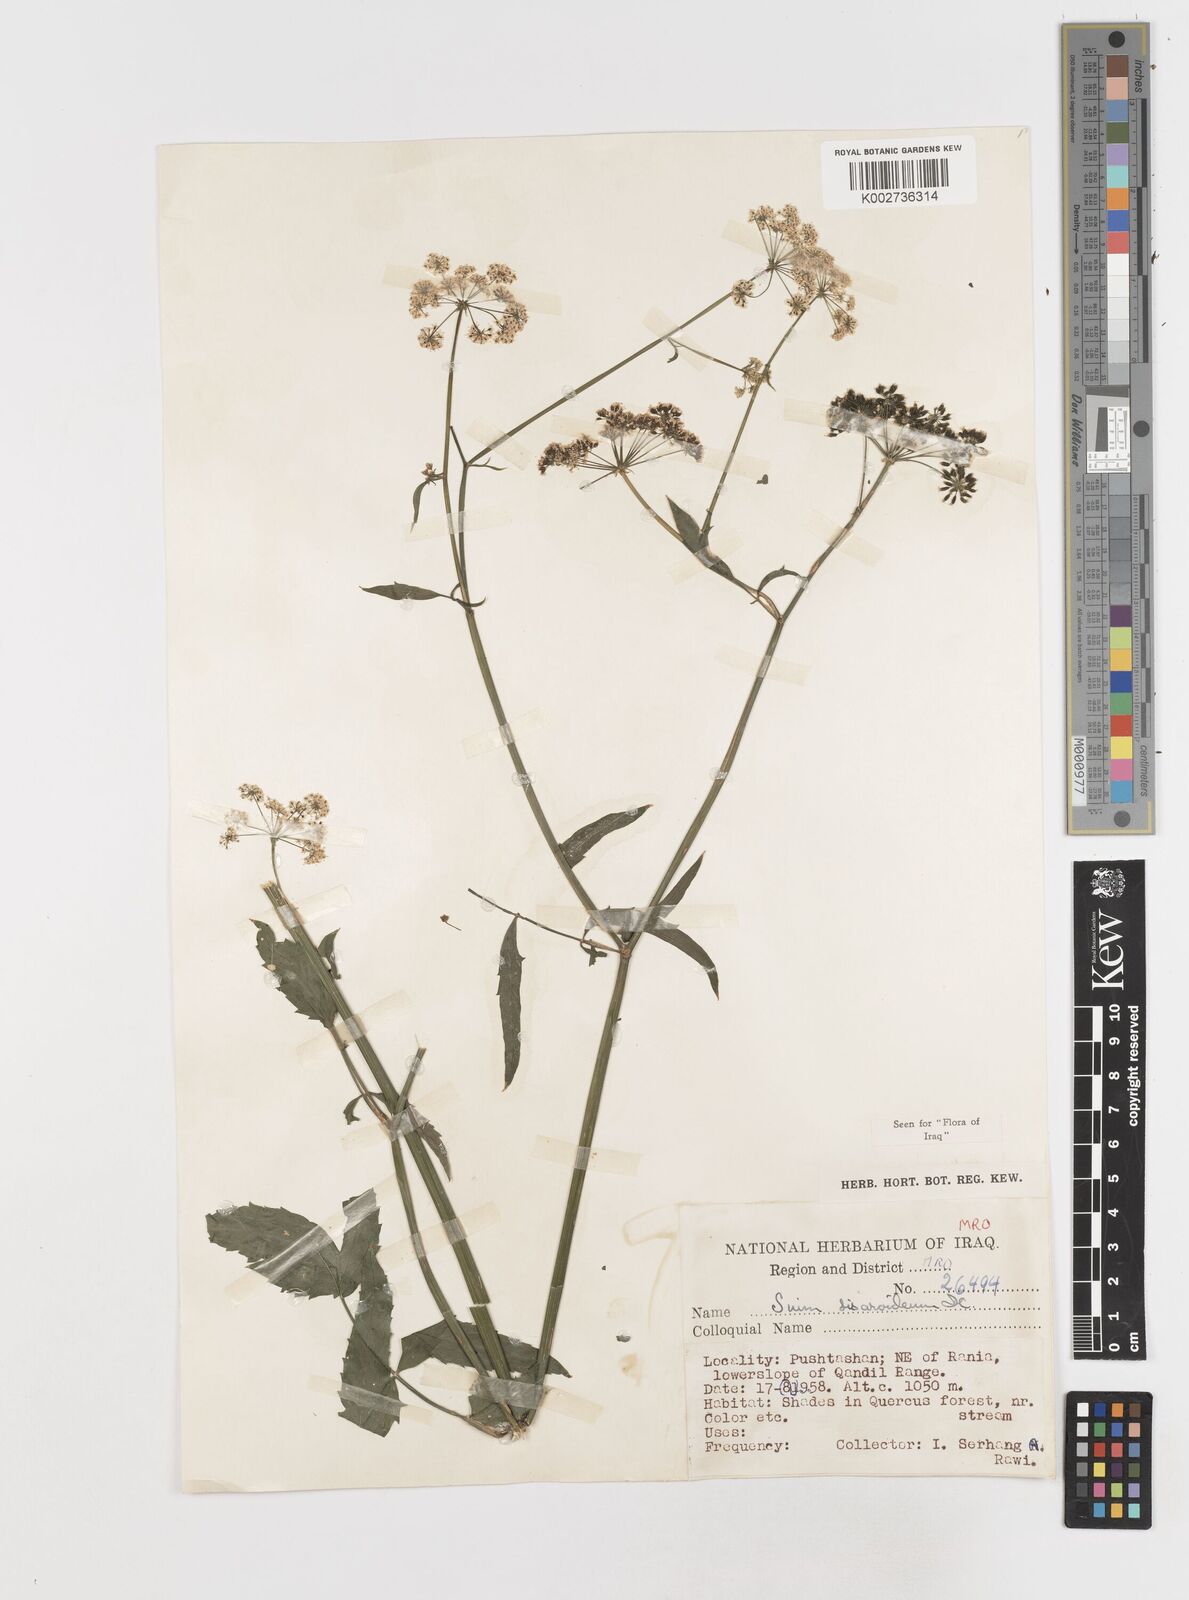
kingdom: Plantae
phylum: Tracheophyta
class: Magnoliopsida
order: Apiales
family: Apiaceae
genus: Sium
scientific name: Sium sisarum
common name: Skirret
